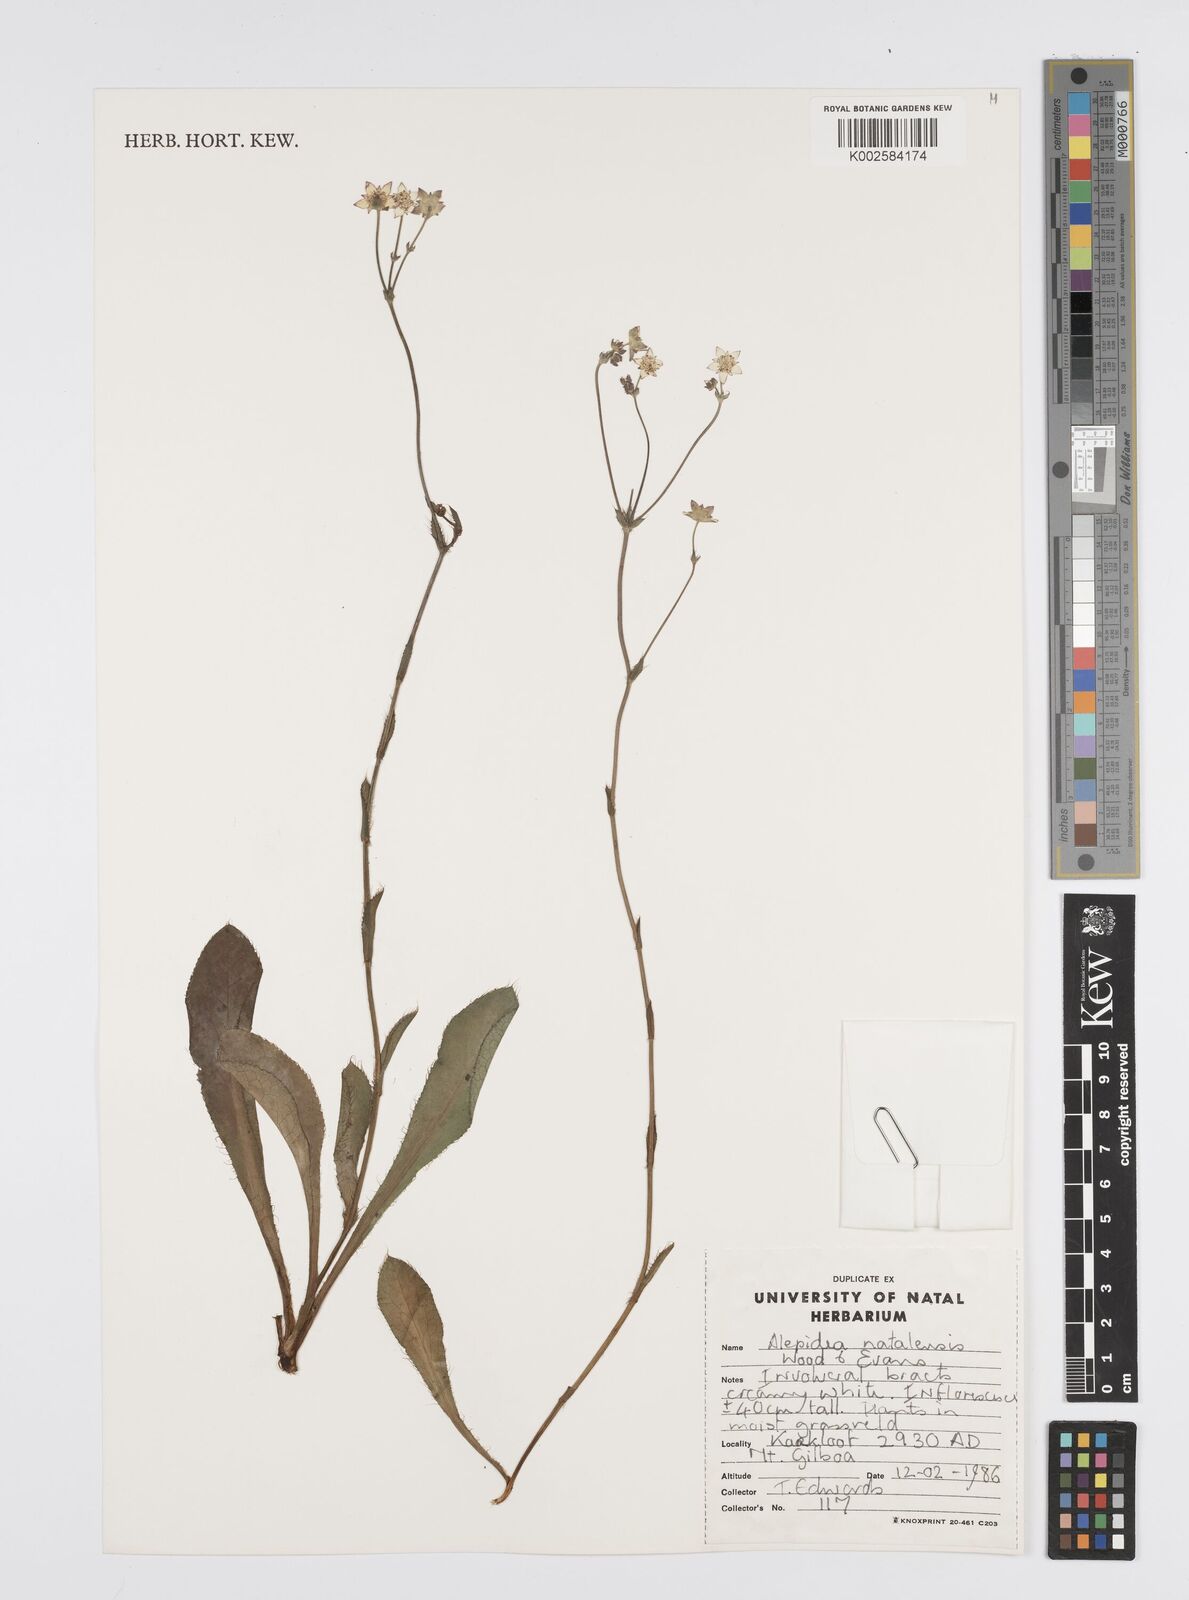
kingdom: Plantae
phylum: Tracheophyta
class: Magnoliopsida
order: Apiales
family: Apiaceae
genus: Alepidea
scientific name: Alepidea natalensis
